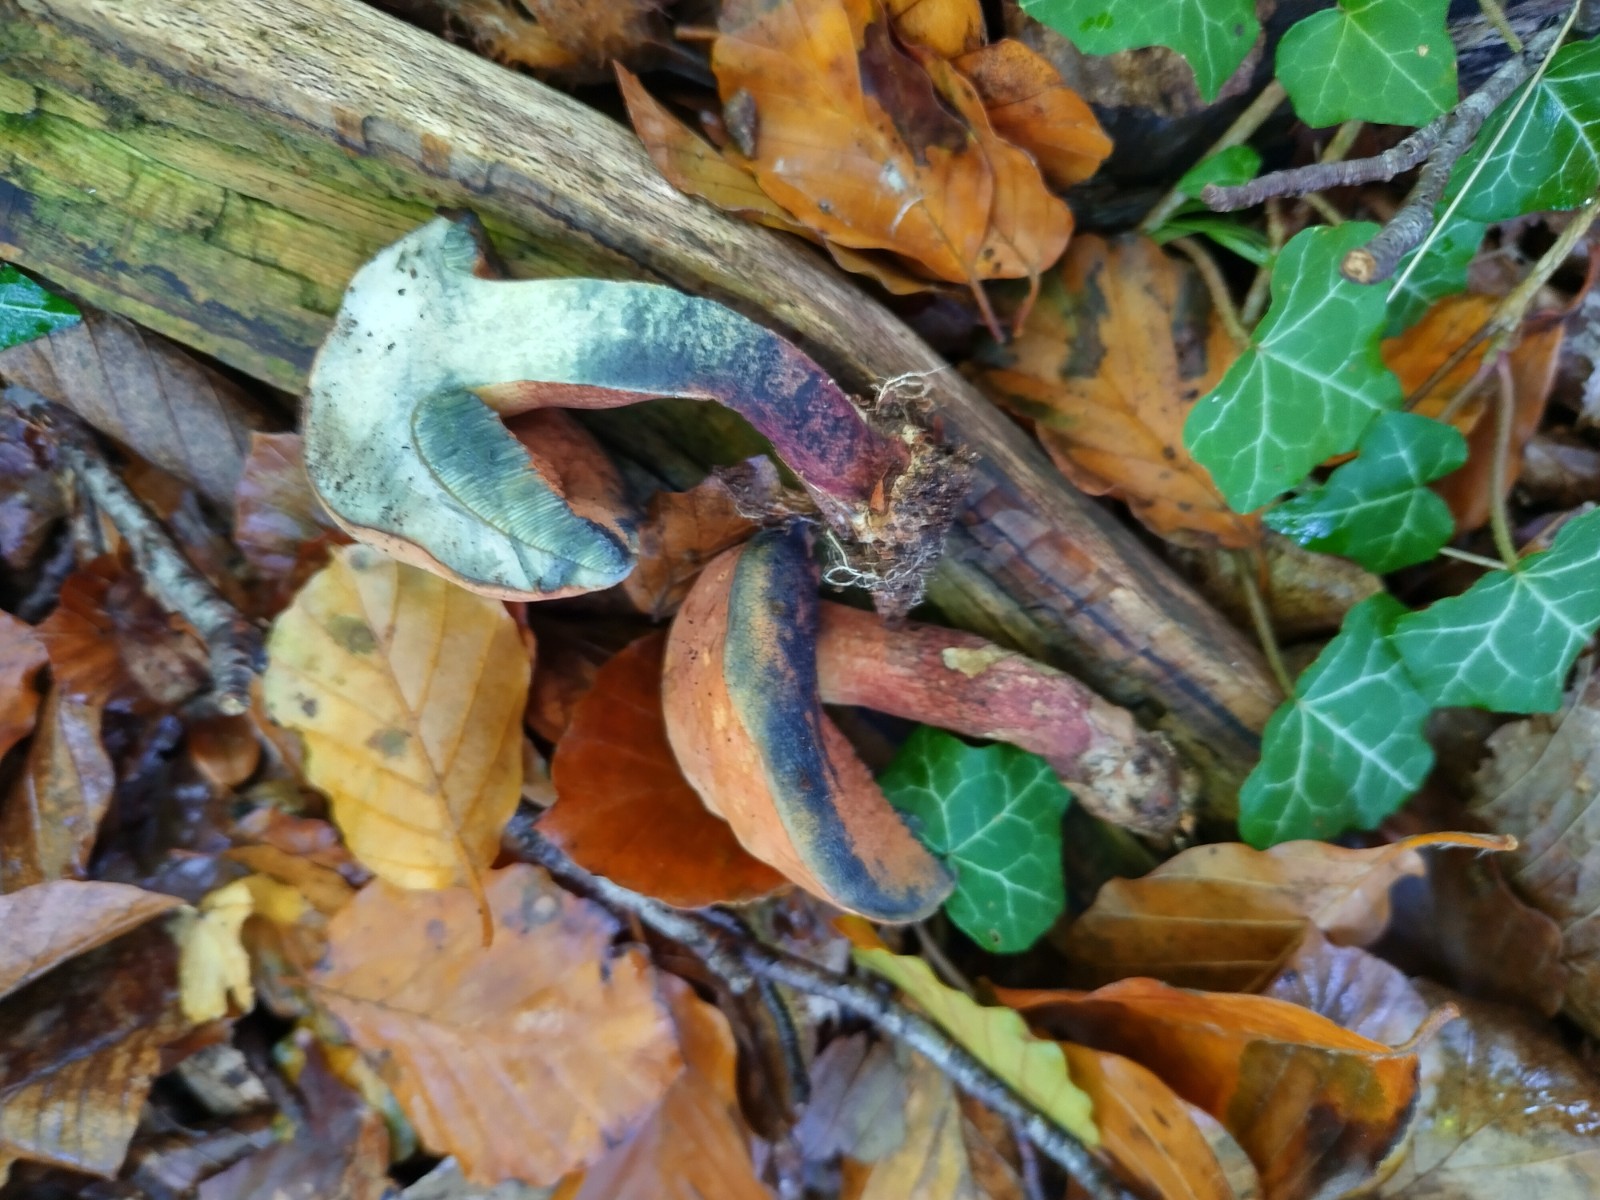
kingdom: Fungi
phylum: Basidiomycota
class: Agaricomycetes
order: Boletales
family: Boletaceae
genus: Suillellus
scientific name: Suillellus mendax
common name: joker-indigorørhat
